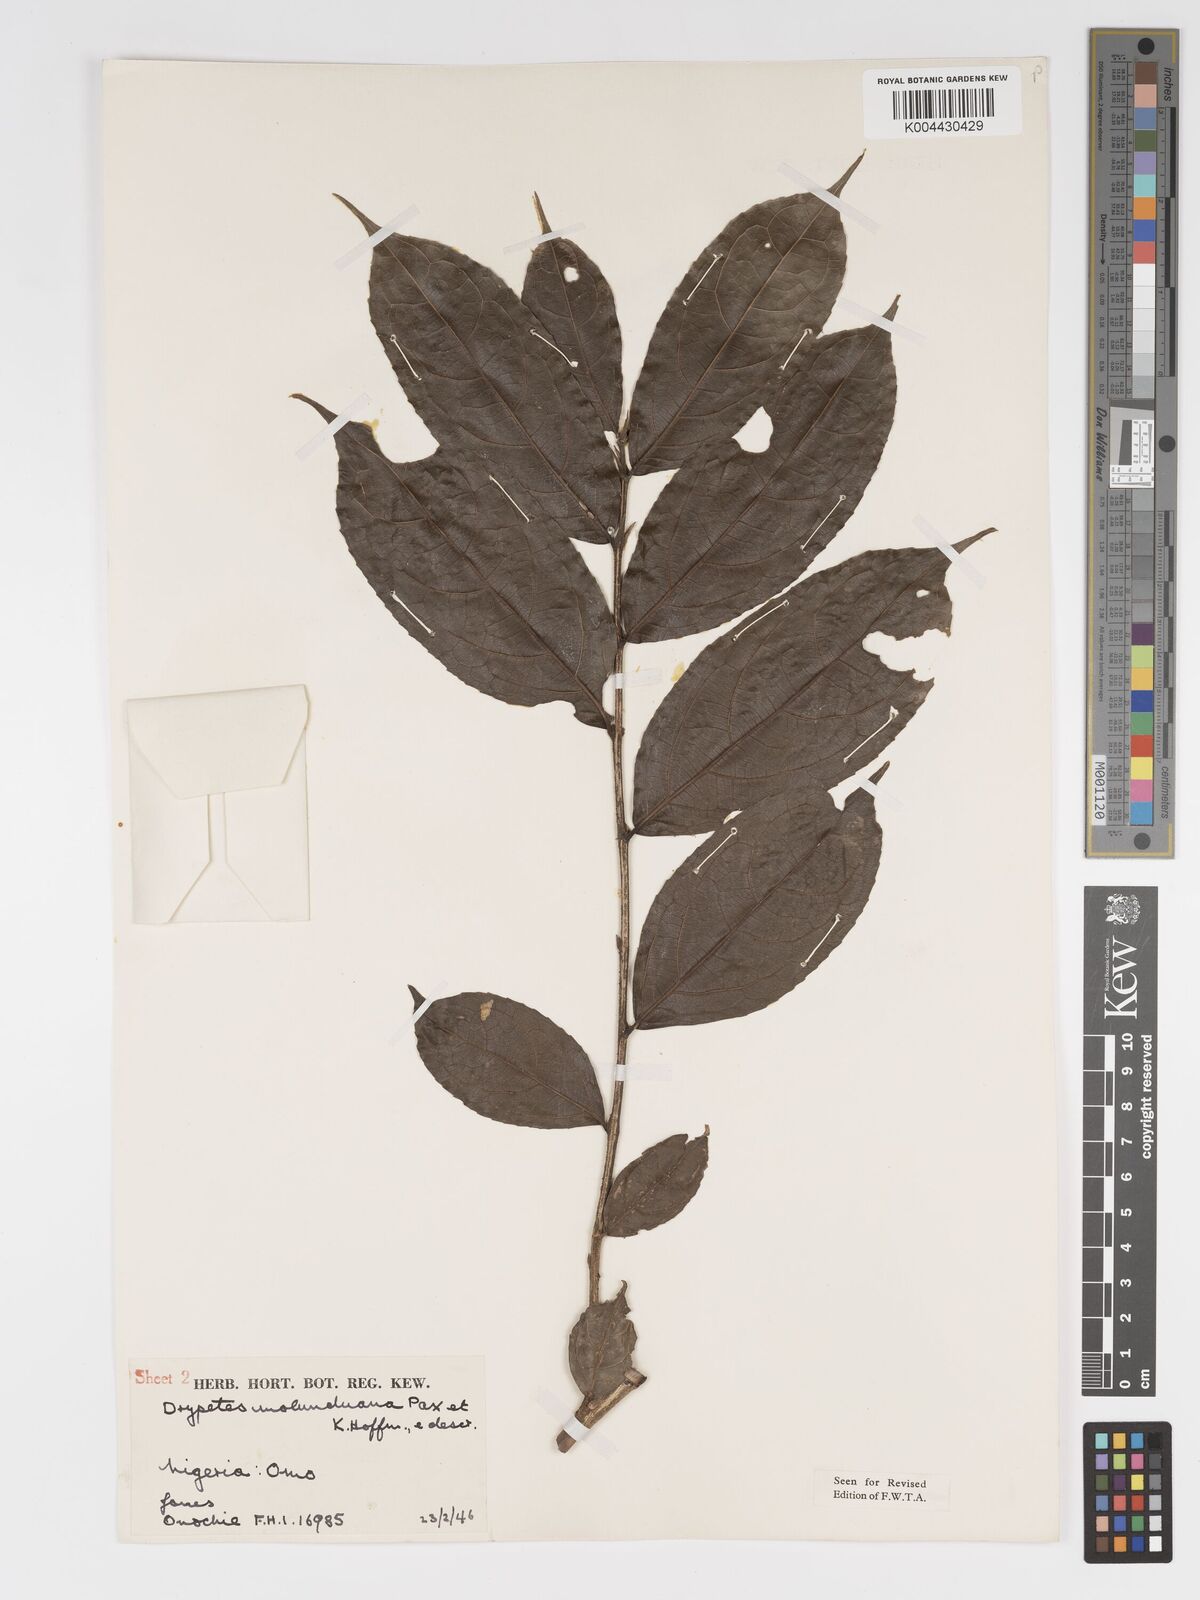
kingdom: Plantae
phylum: Tracheophyta
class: Magnoliopsida
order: Malpighiales
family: Putranjivaceae
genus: Drypetes
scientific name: Drypetes molunduana
